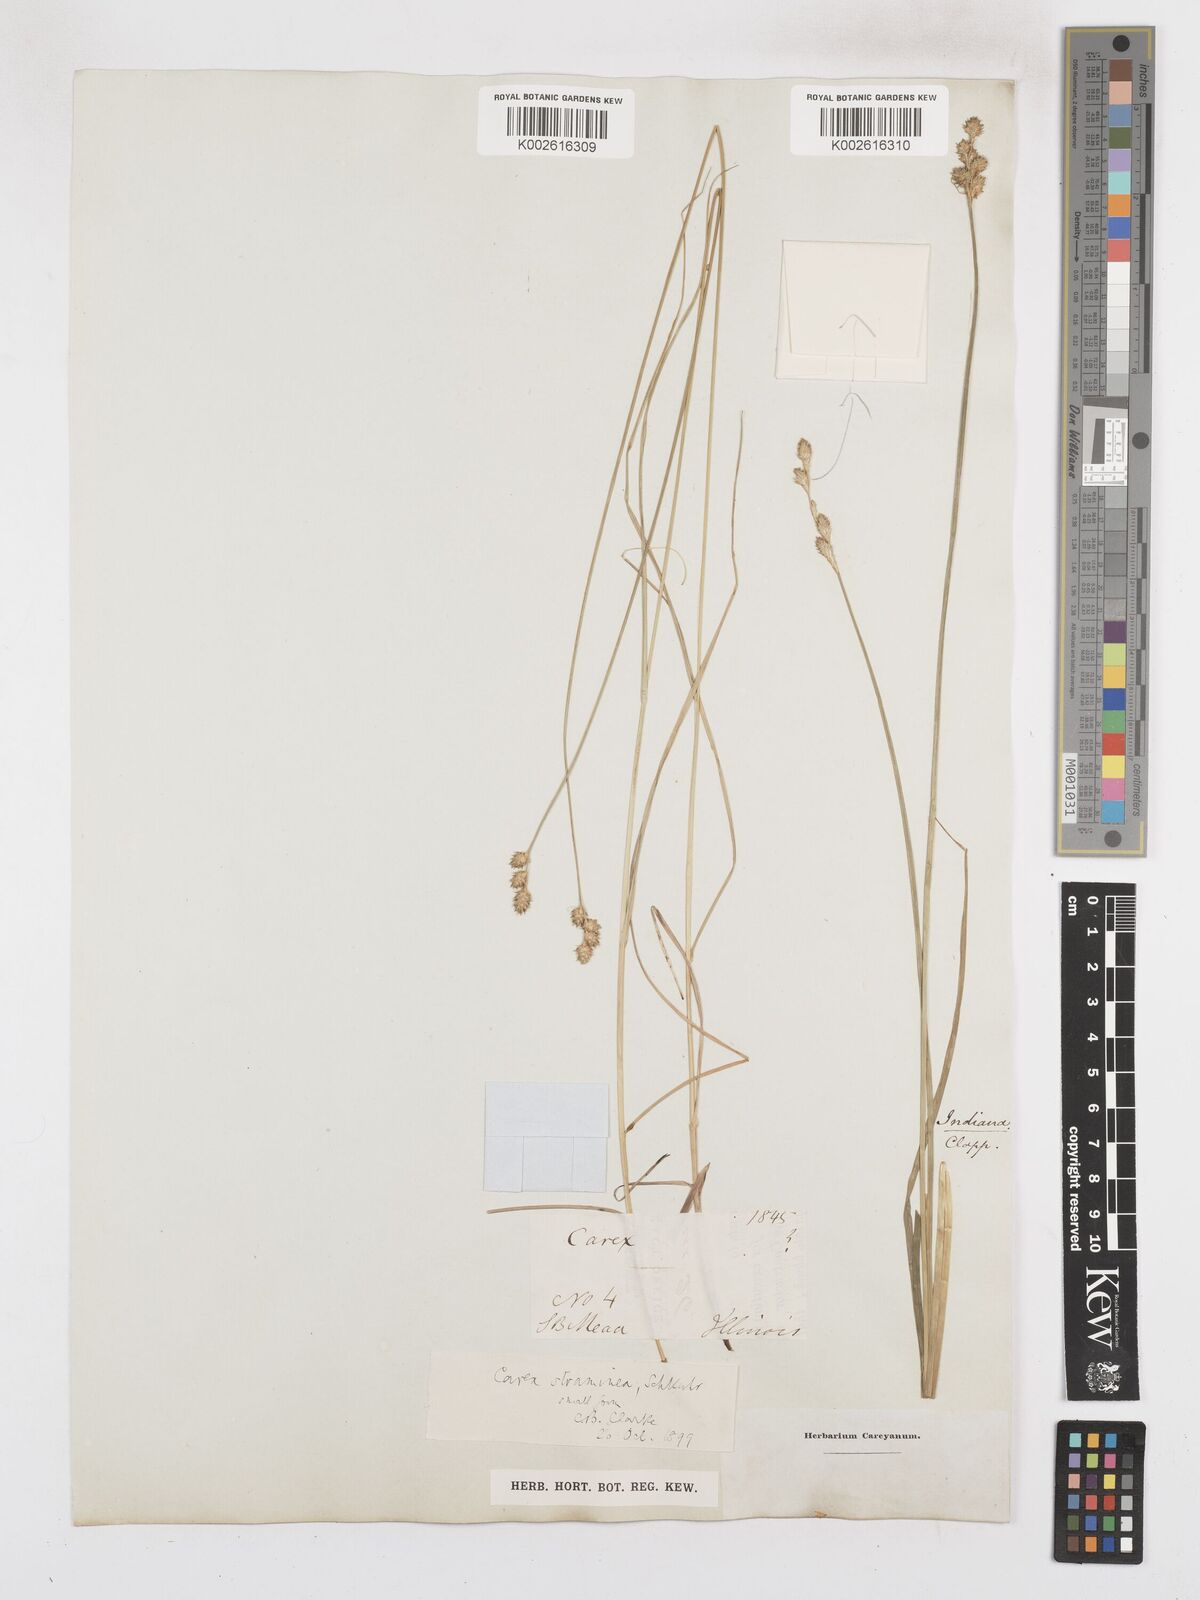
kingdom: Plantae
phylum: Tracheophyta
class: Liliopsida
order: Poales
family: Cyperaceae
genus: Carex
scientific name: Carex albolutescens
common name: Freenish white sedge
